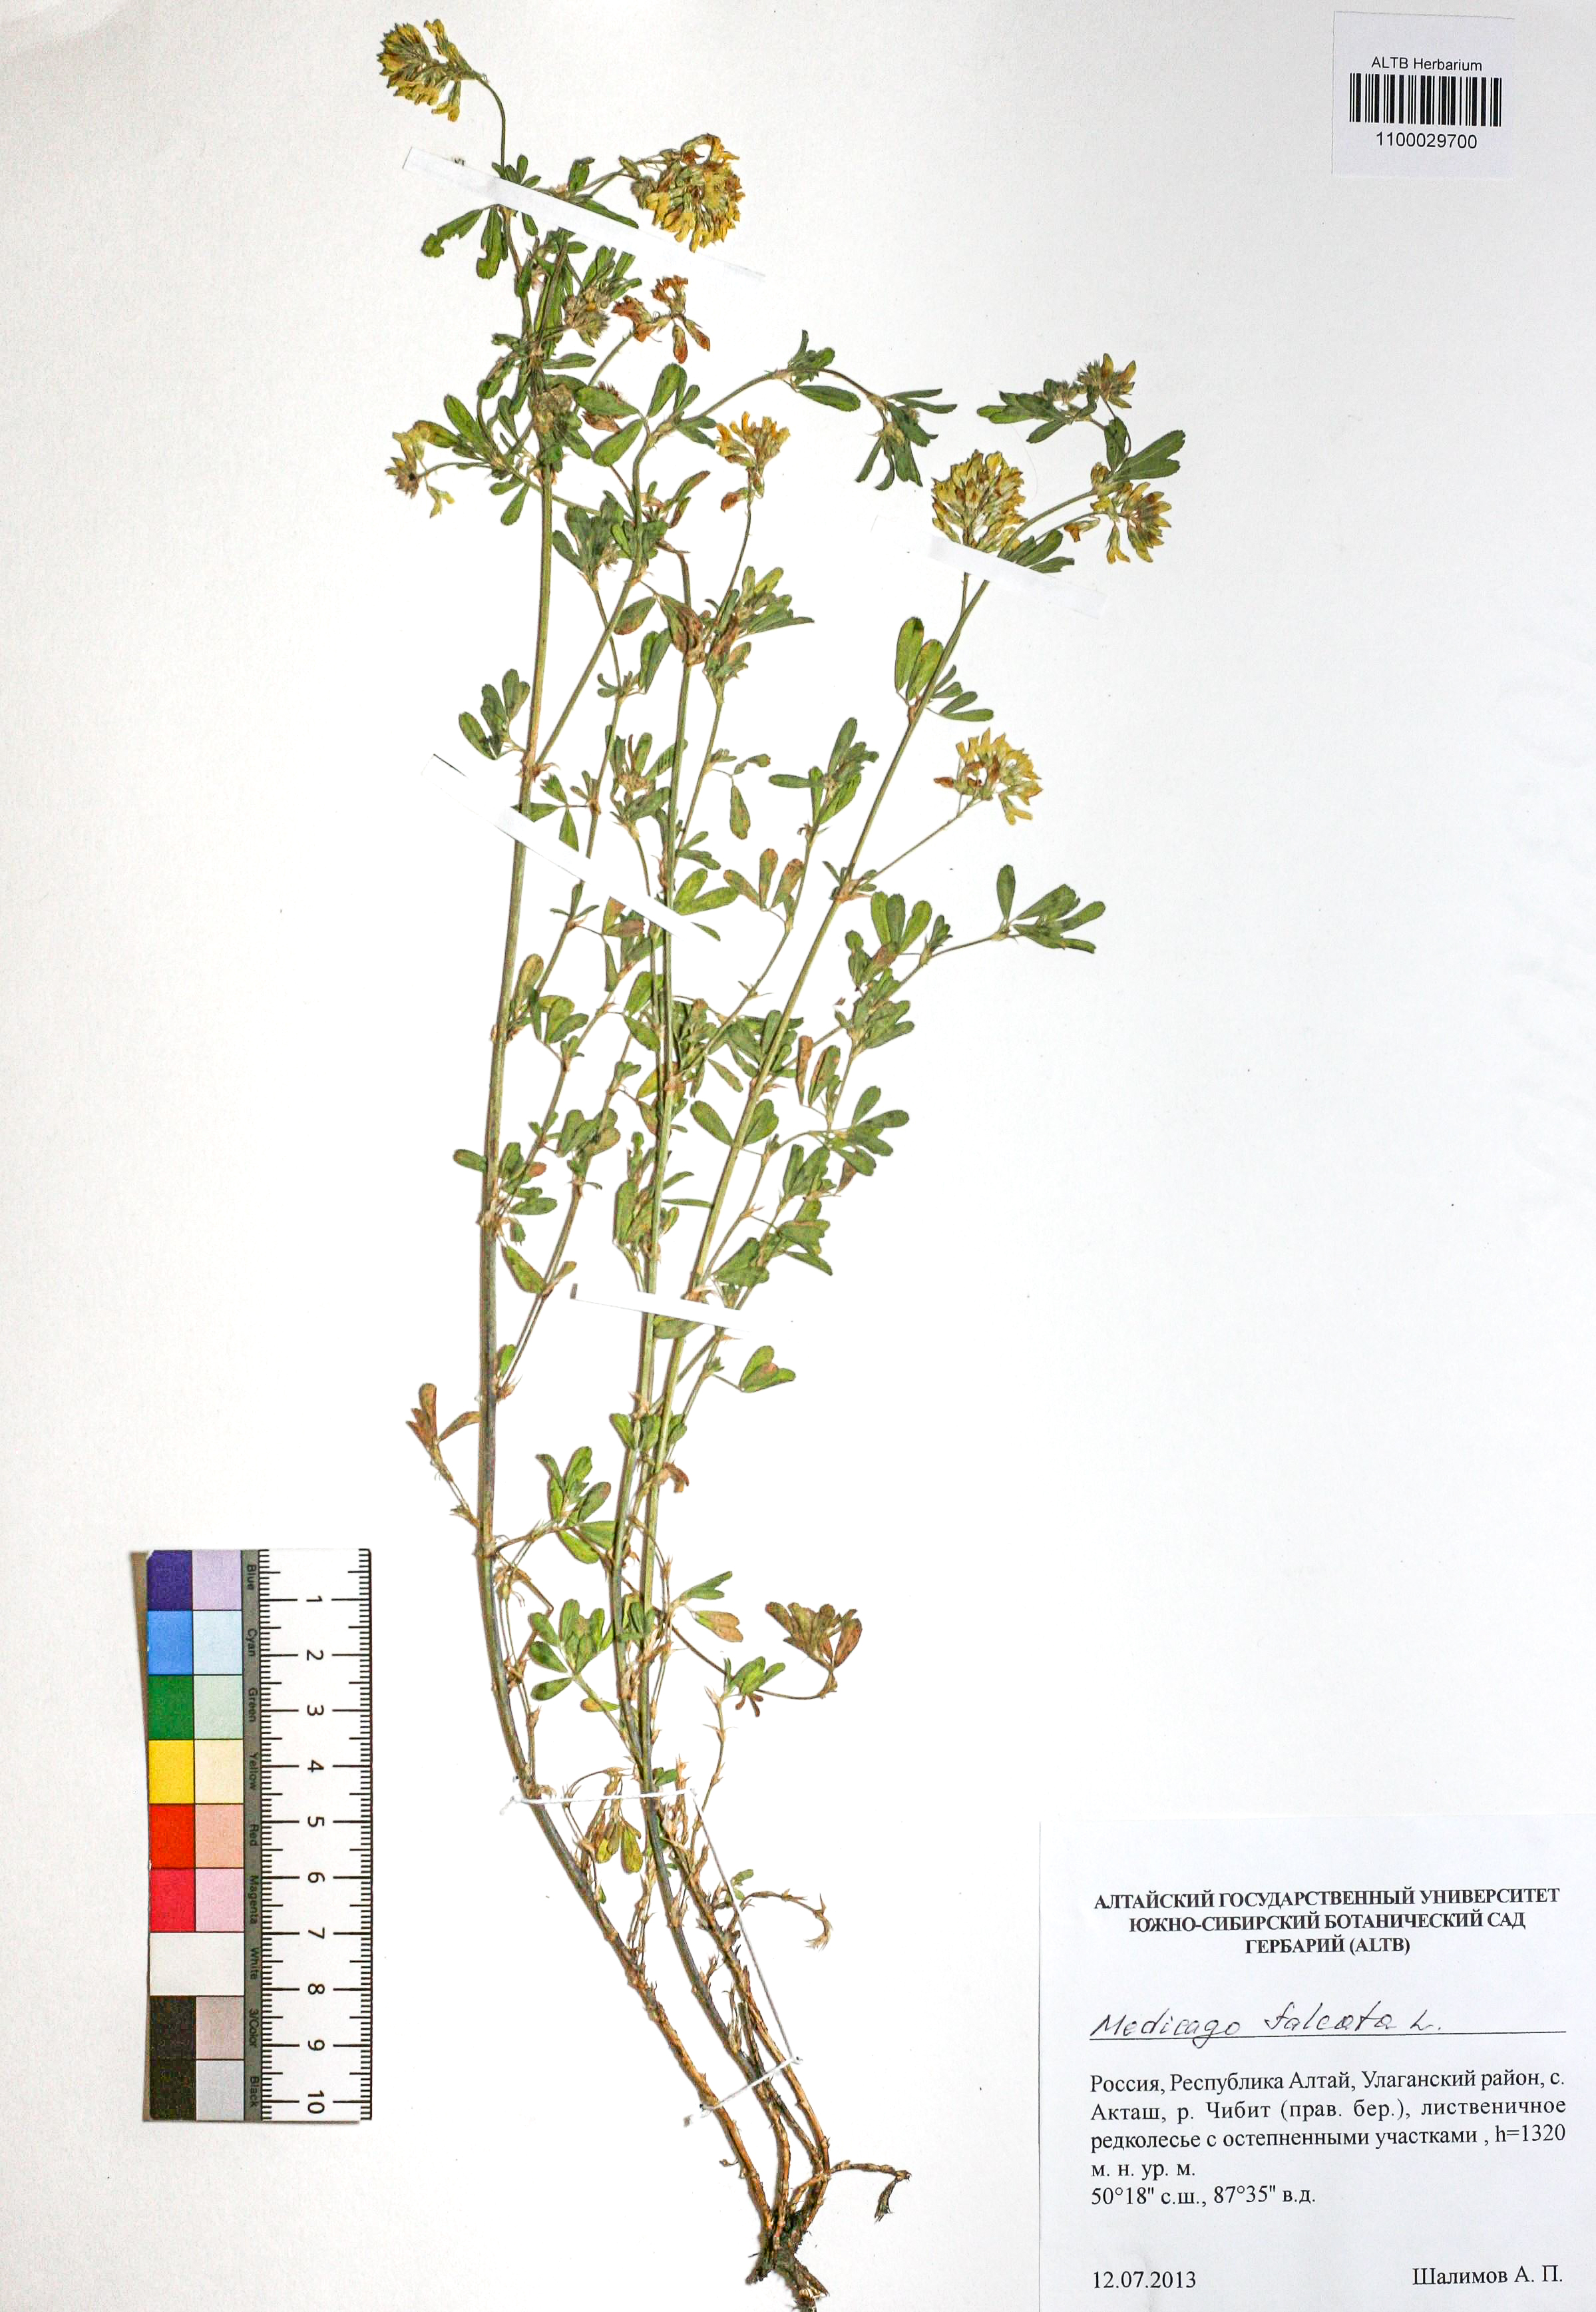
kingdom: Plantae
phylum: Tracheophyta
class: Magnoliopsida
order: Fabales
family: Fabaceae
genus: Medicago
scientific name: Medicago falcata
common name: Sickle medick
